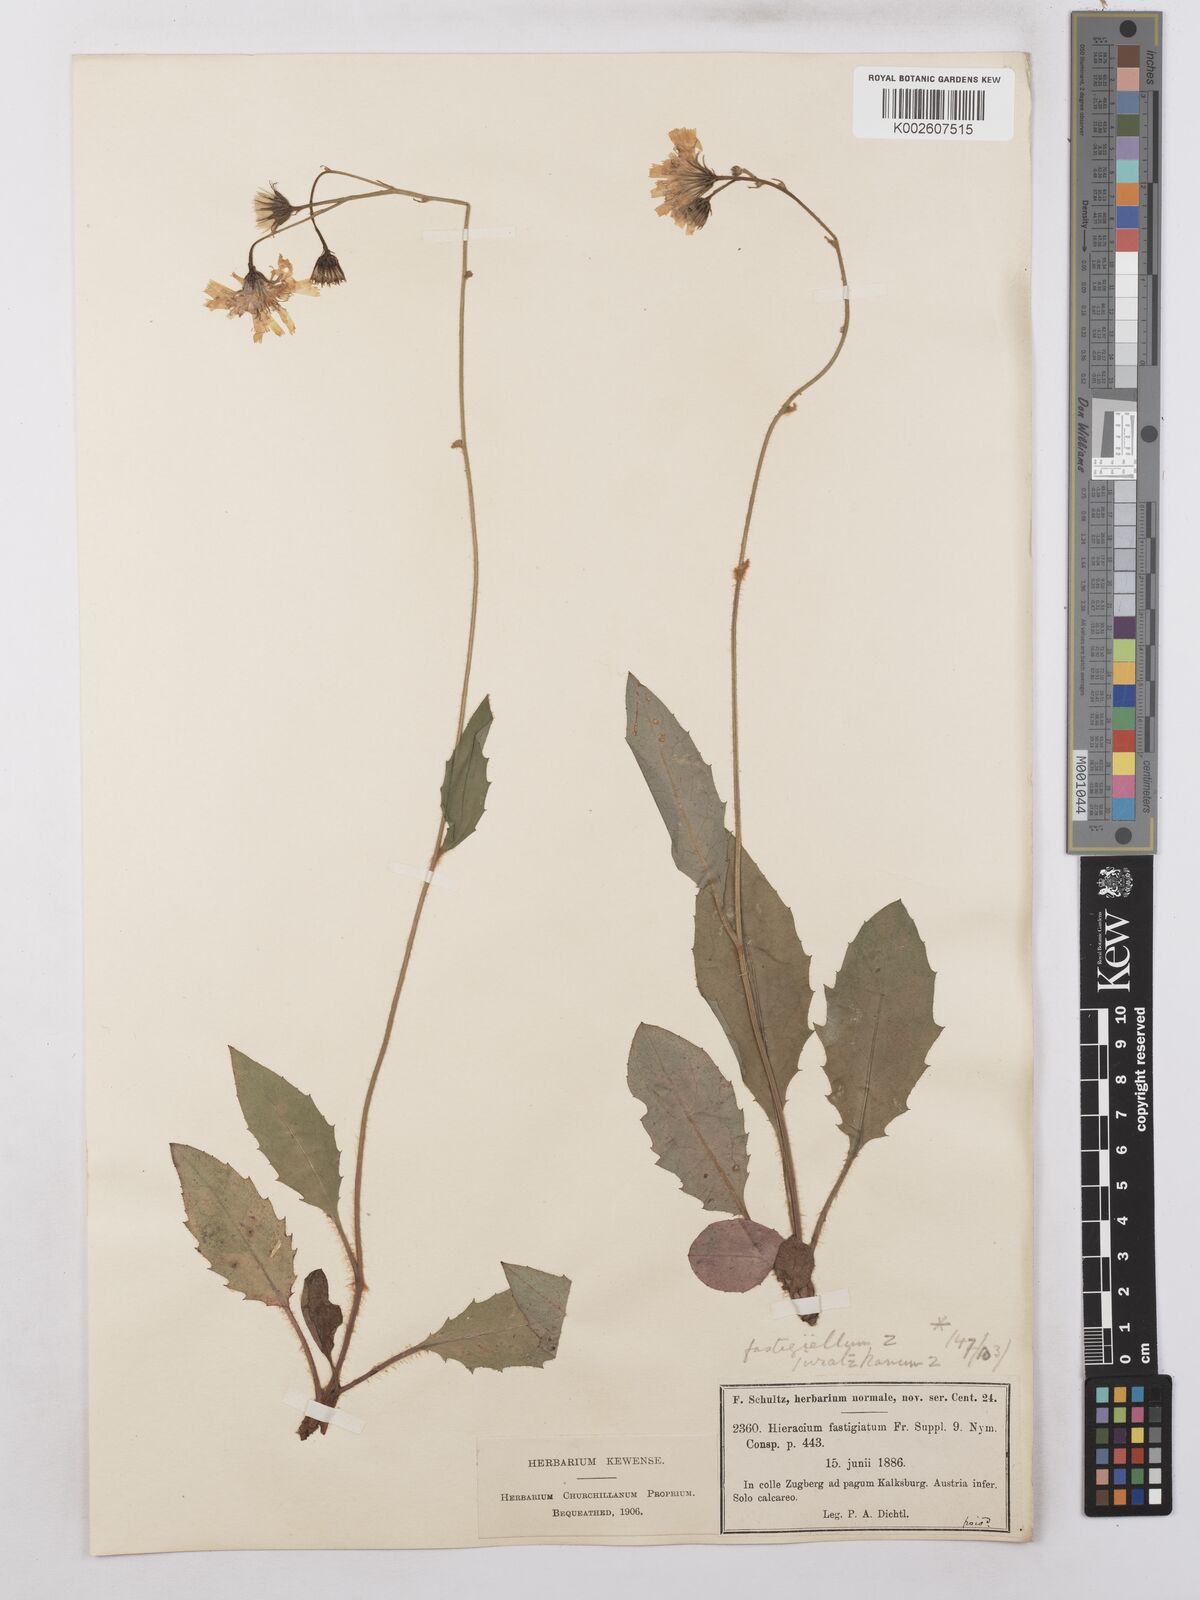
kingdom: Plantae
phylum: Tracheophyta
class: Magnoliopsida
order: Asterales
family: Asteraceae
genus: Hieracium
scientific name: Hieracium caesium
